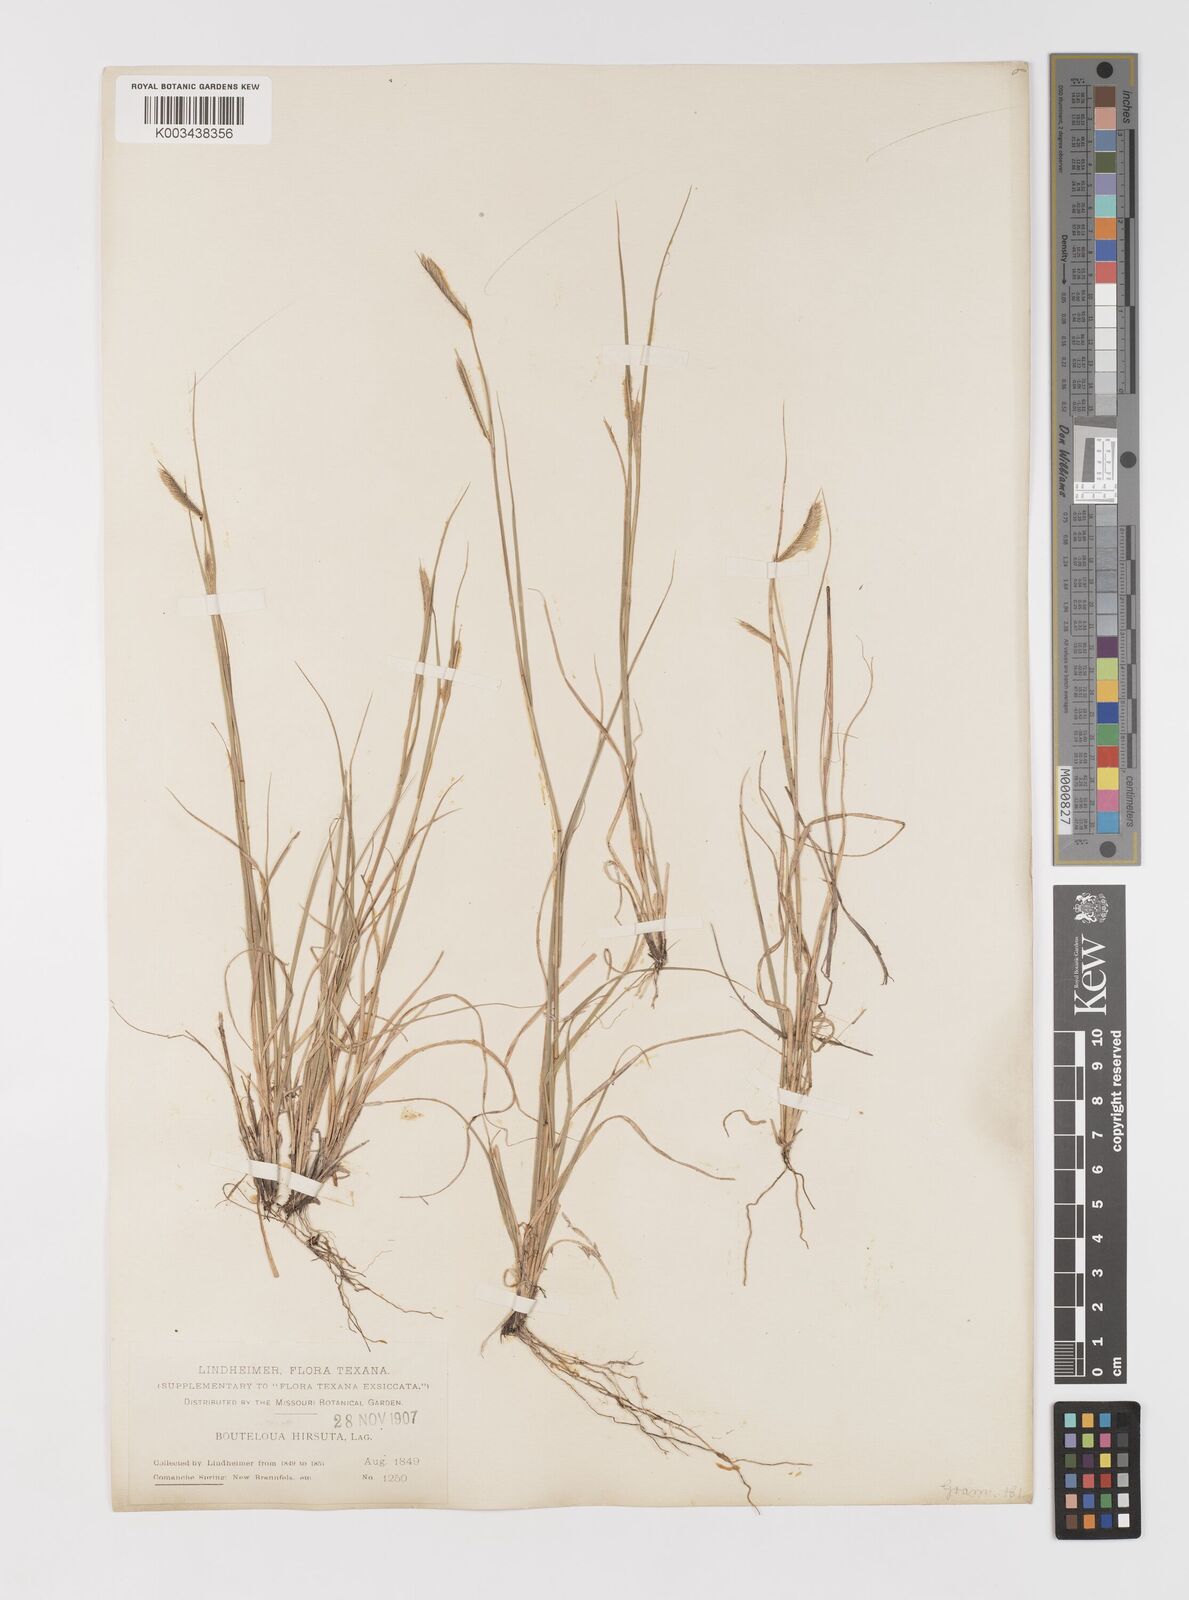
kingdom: Plantae
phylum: Tracheophyta
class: Liliopsida
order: Poales
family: Poaceae
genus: Bouteloua
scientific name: Bouteloua hirsuta
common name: Hairy grama
